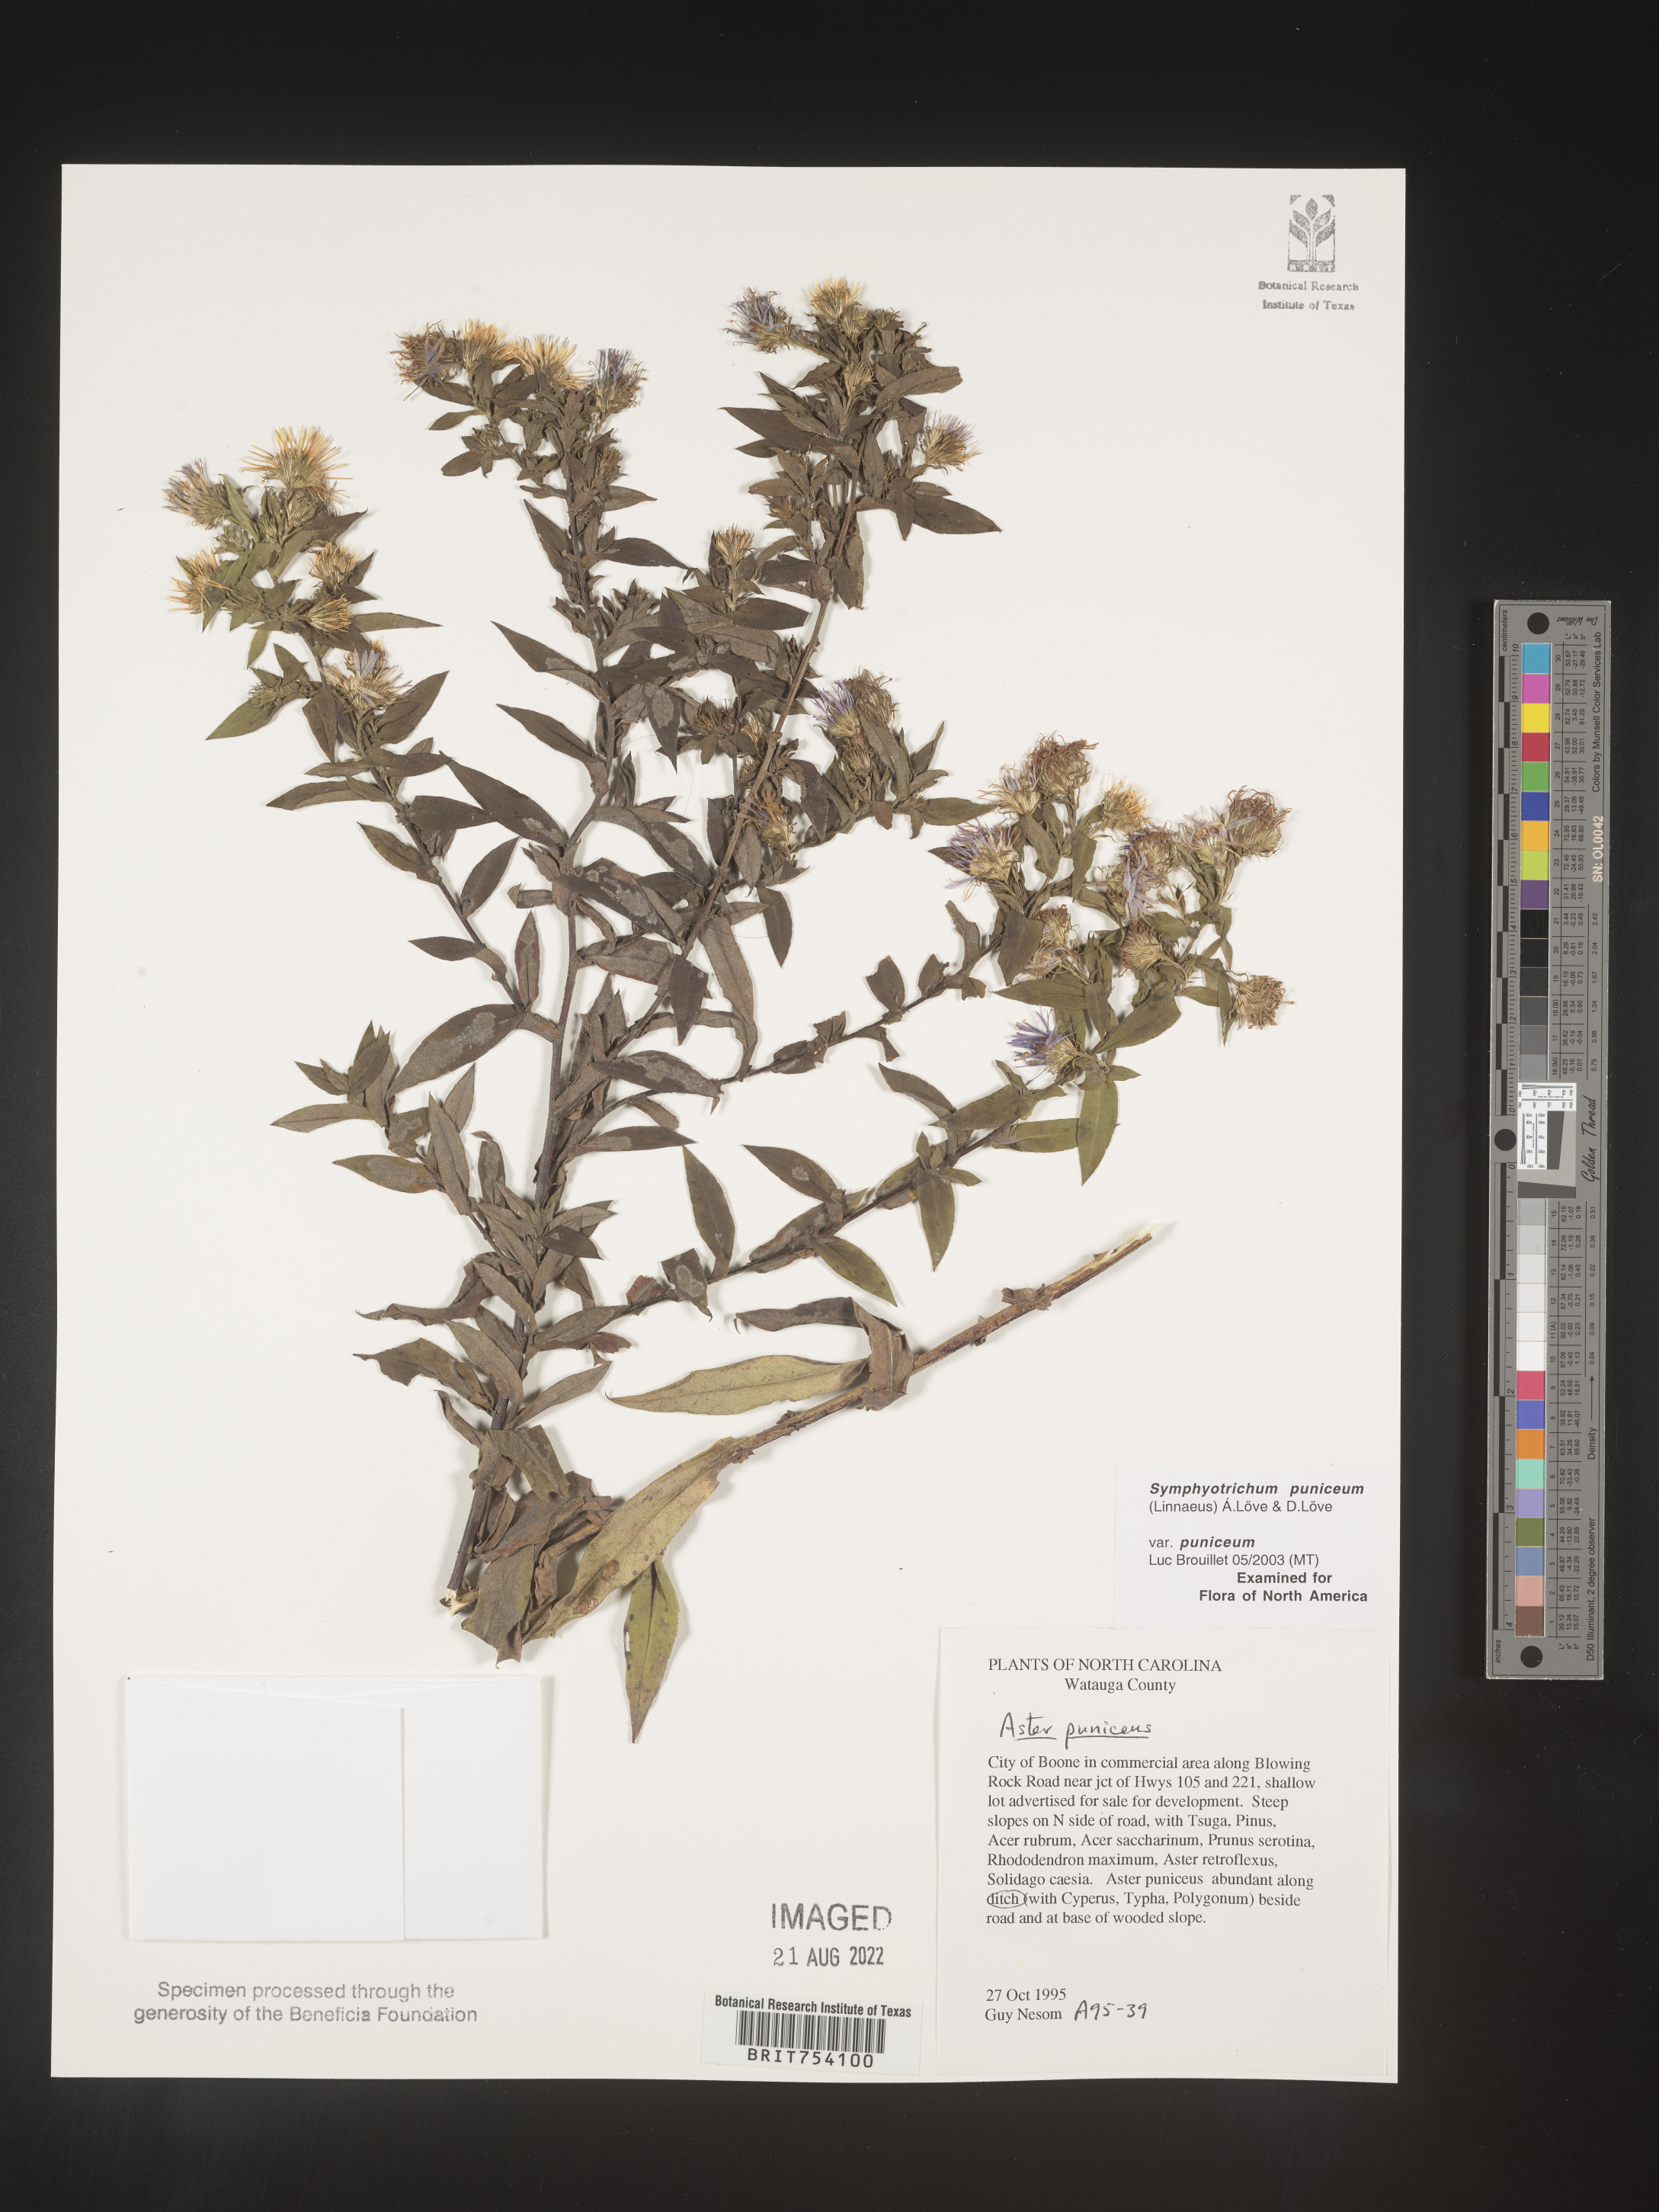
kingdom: Plantae
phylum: Tracheophyta
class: Magnoliopsida
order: Asterales
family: Asteraceae
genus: Symphyotrichum
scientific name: Symphyotrichum puniceum
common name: Bog aster
